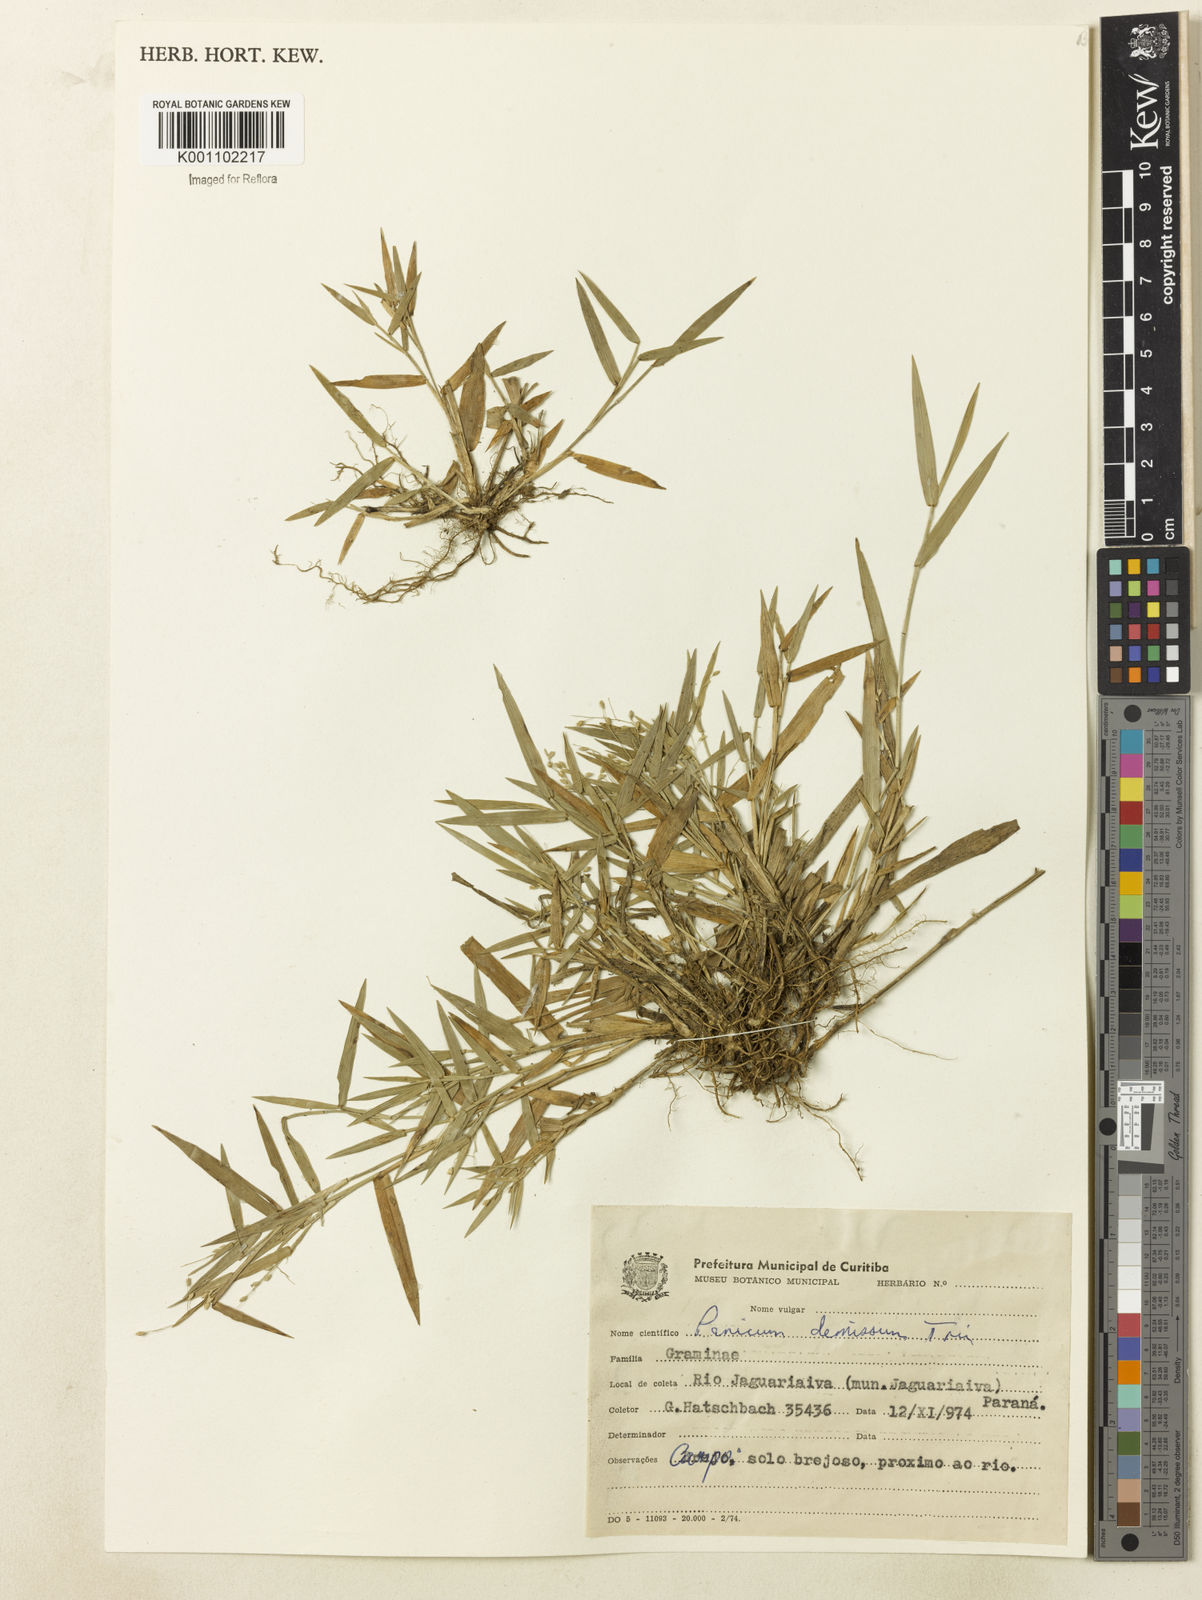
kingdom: Plantae
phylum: Tracheophyta
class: Liliopsida
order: Poales
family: Poaceae
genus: Dichanthelium
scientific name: Dichanthelium sabulorum
